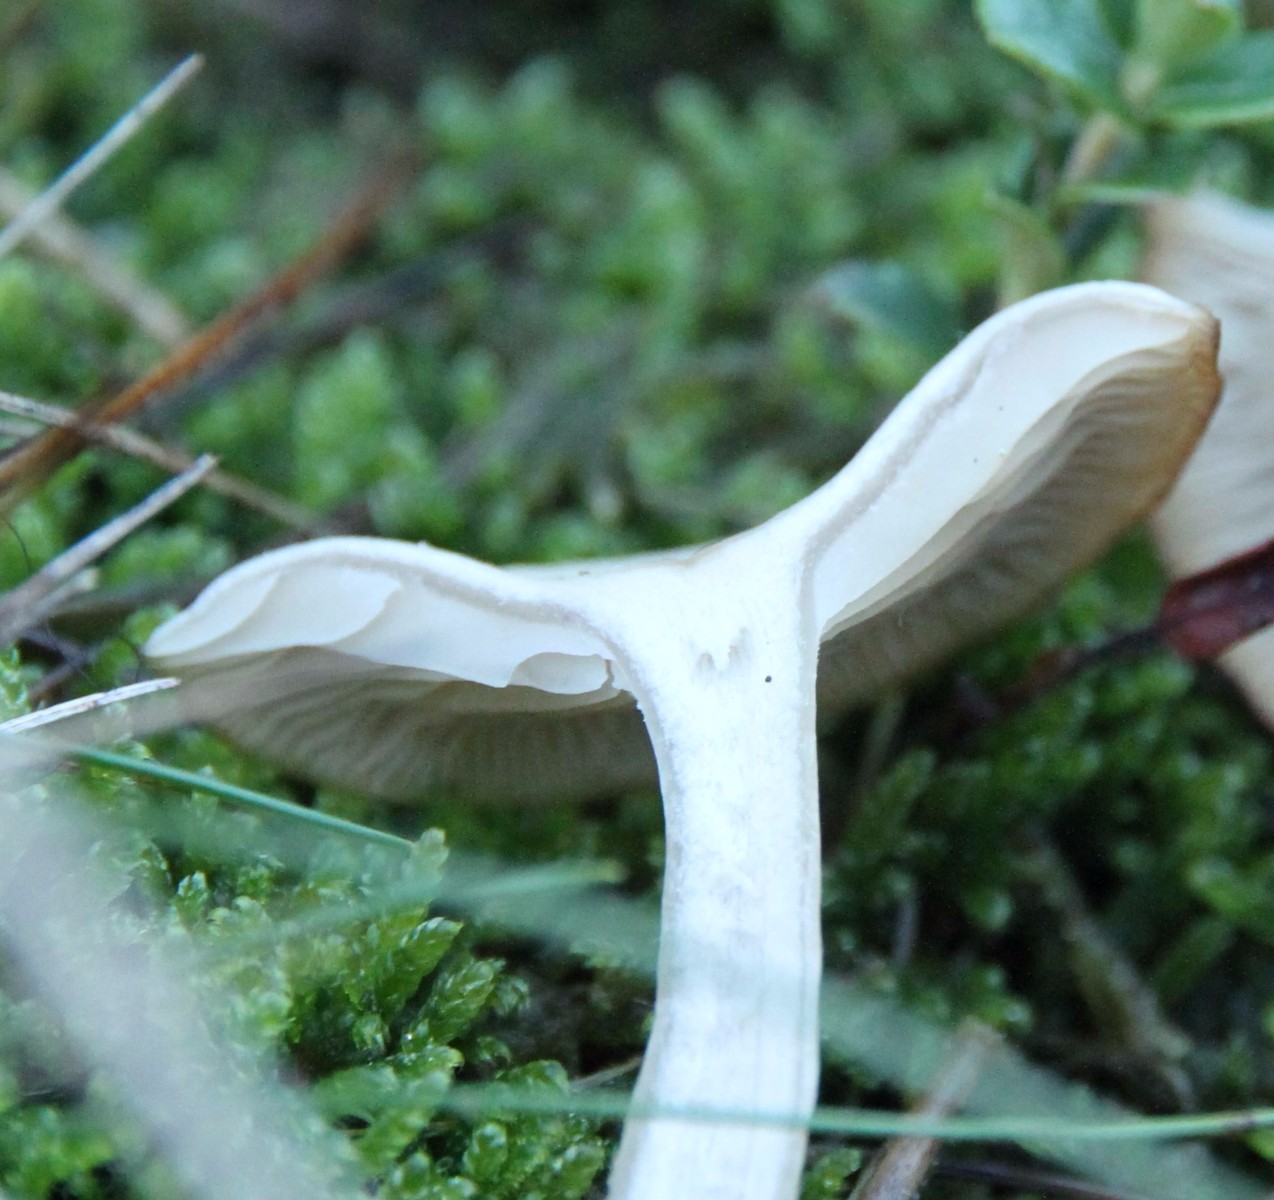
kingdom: Fungi
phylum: Basidiomycota
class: Agaricomycetes
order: Agaricales
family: Tricholomataceae
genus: Clitocybe
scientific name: Clitocybe
